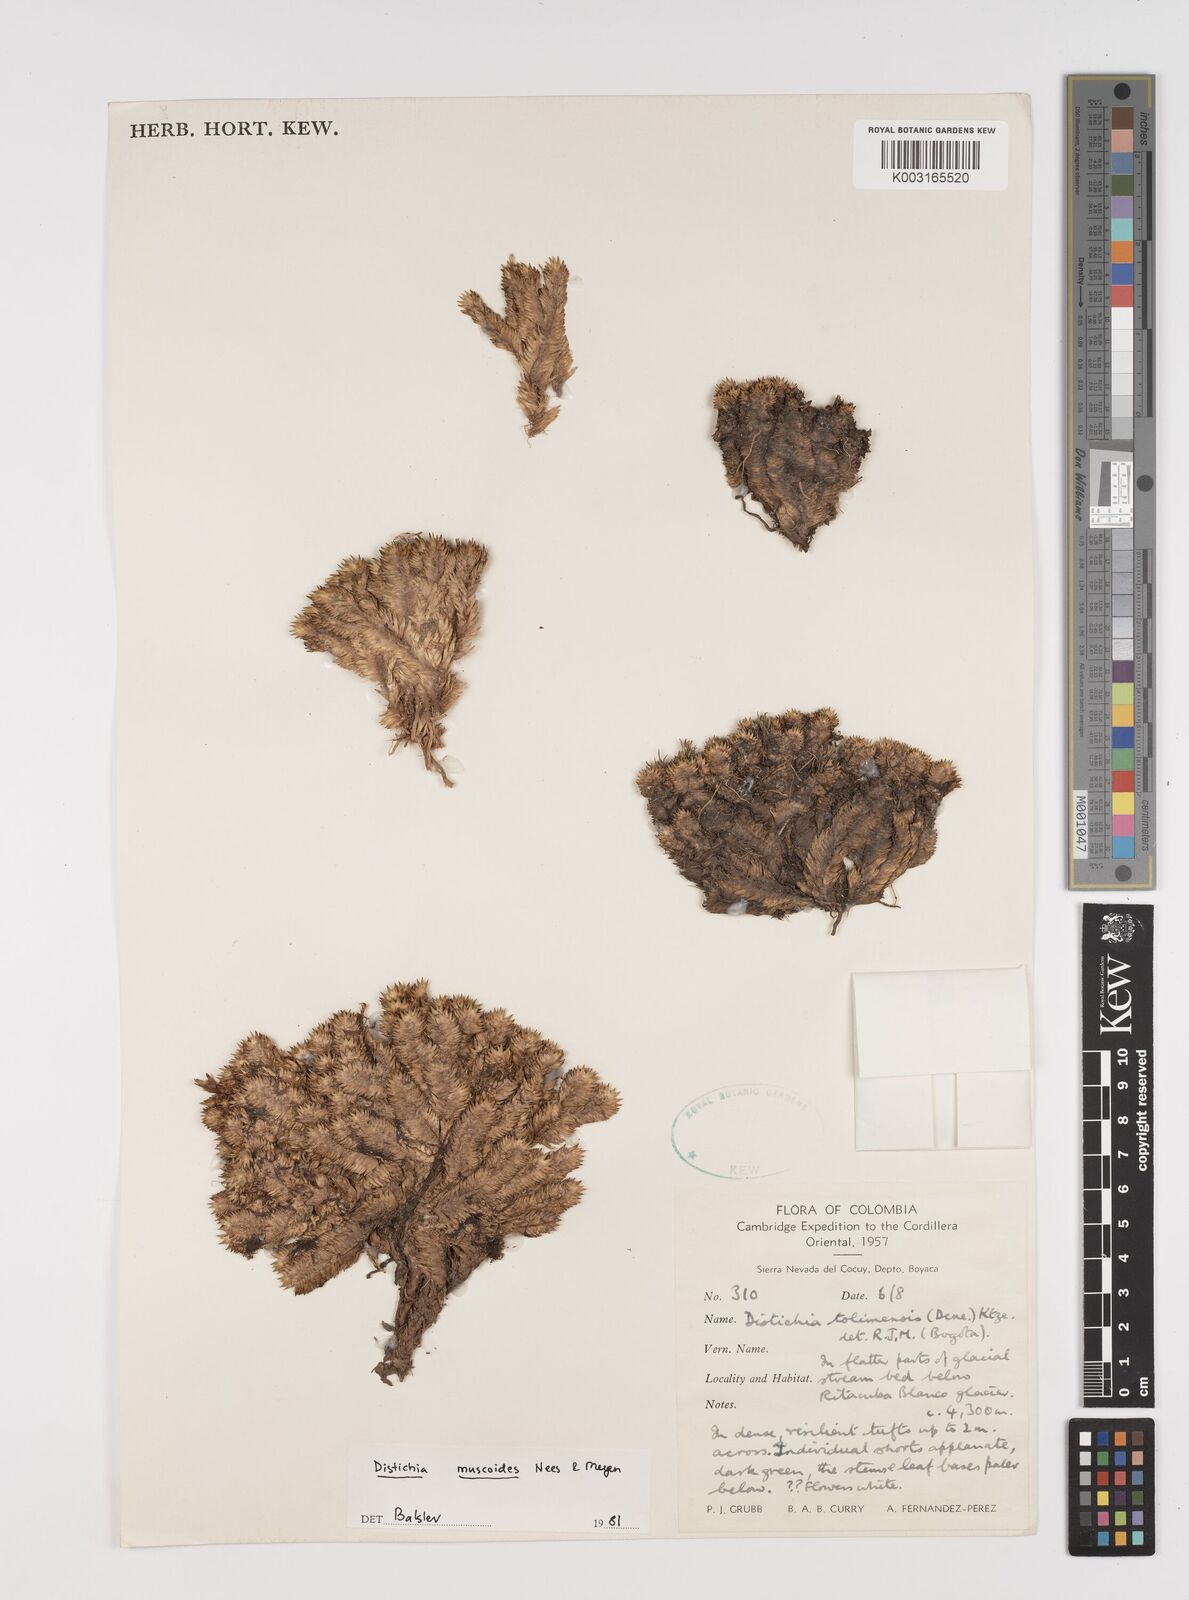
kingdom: Plantae
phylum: Tracheophyta
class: Liliopsida
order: Poales
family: Juncaceae
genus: Distichia
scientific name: Distichia muscoides
